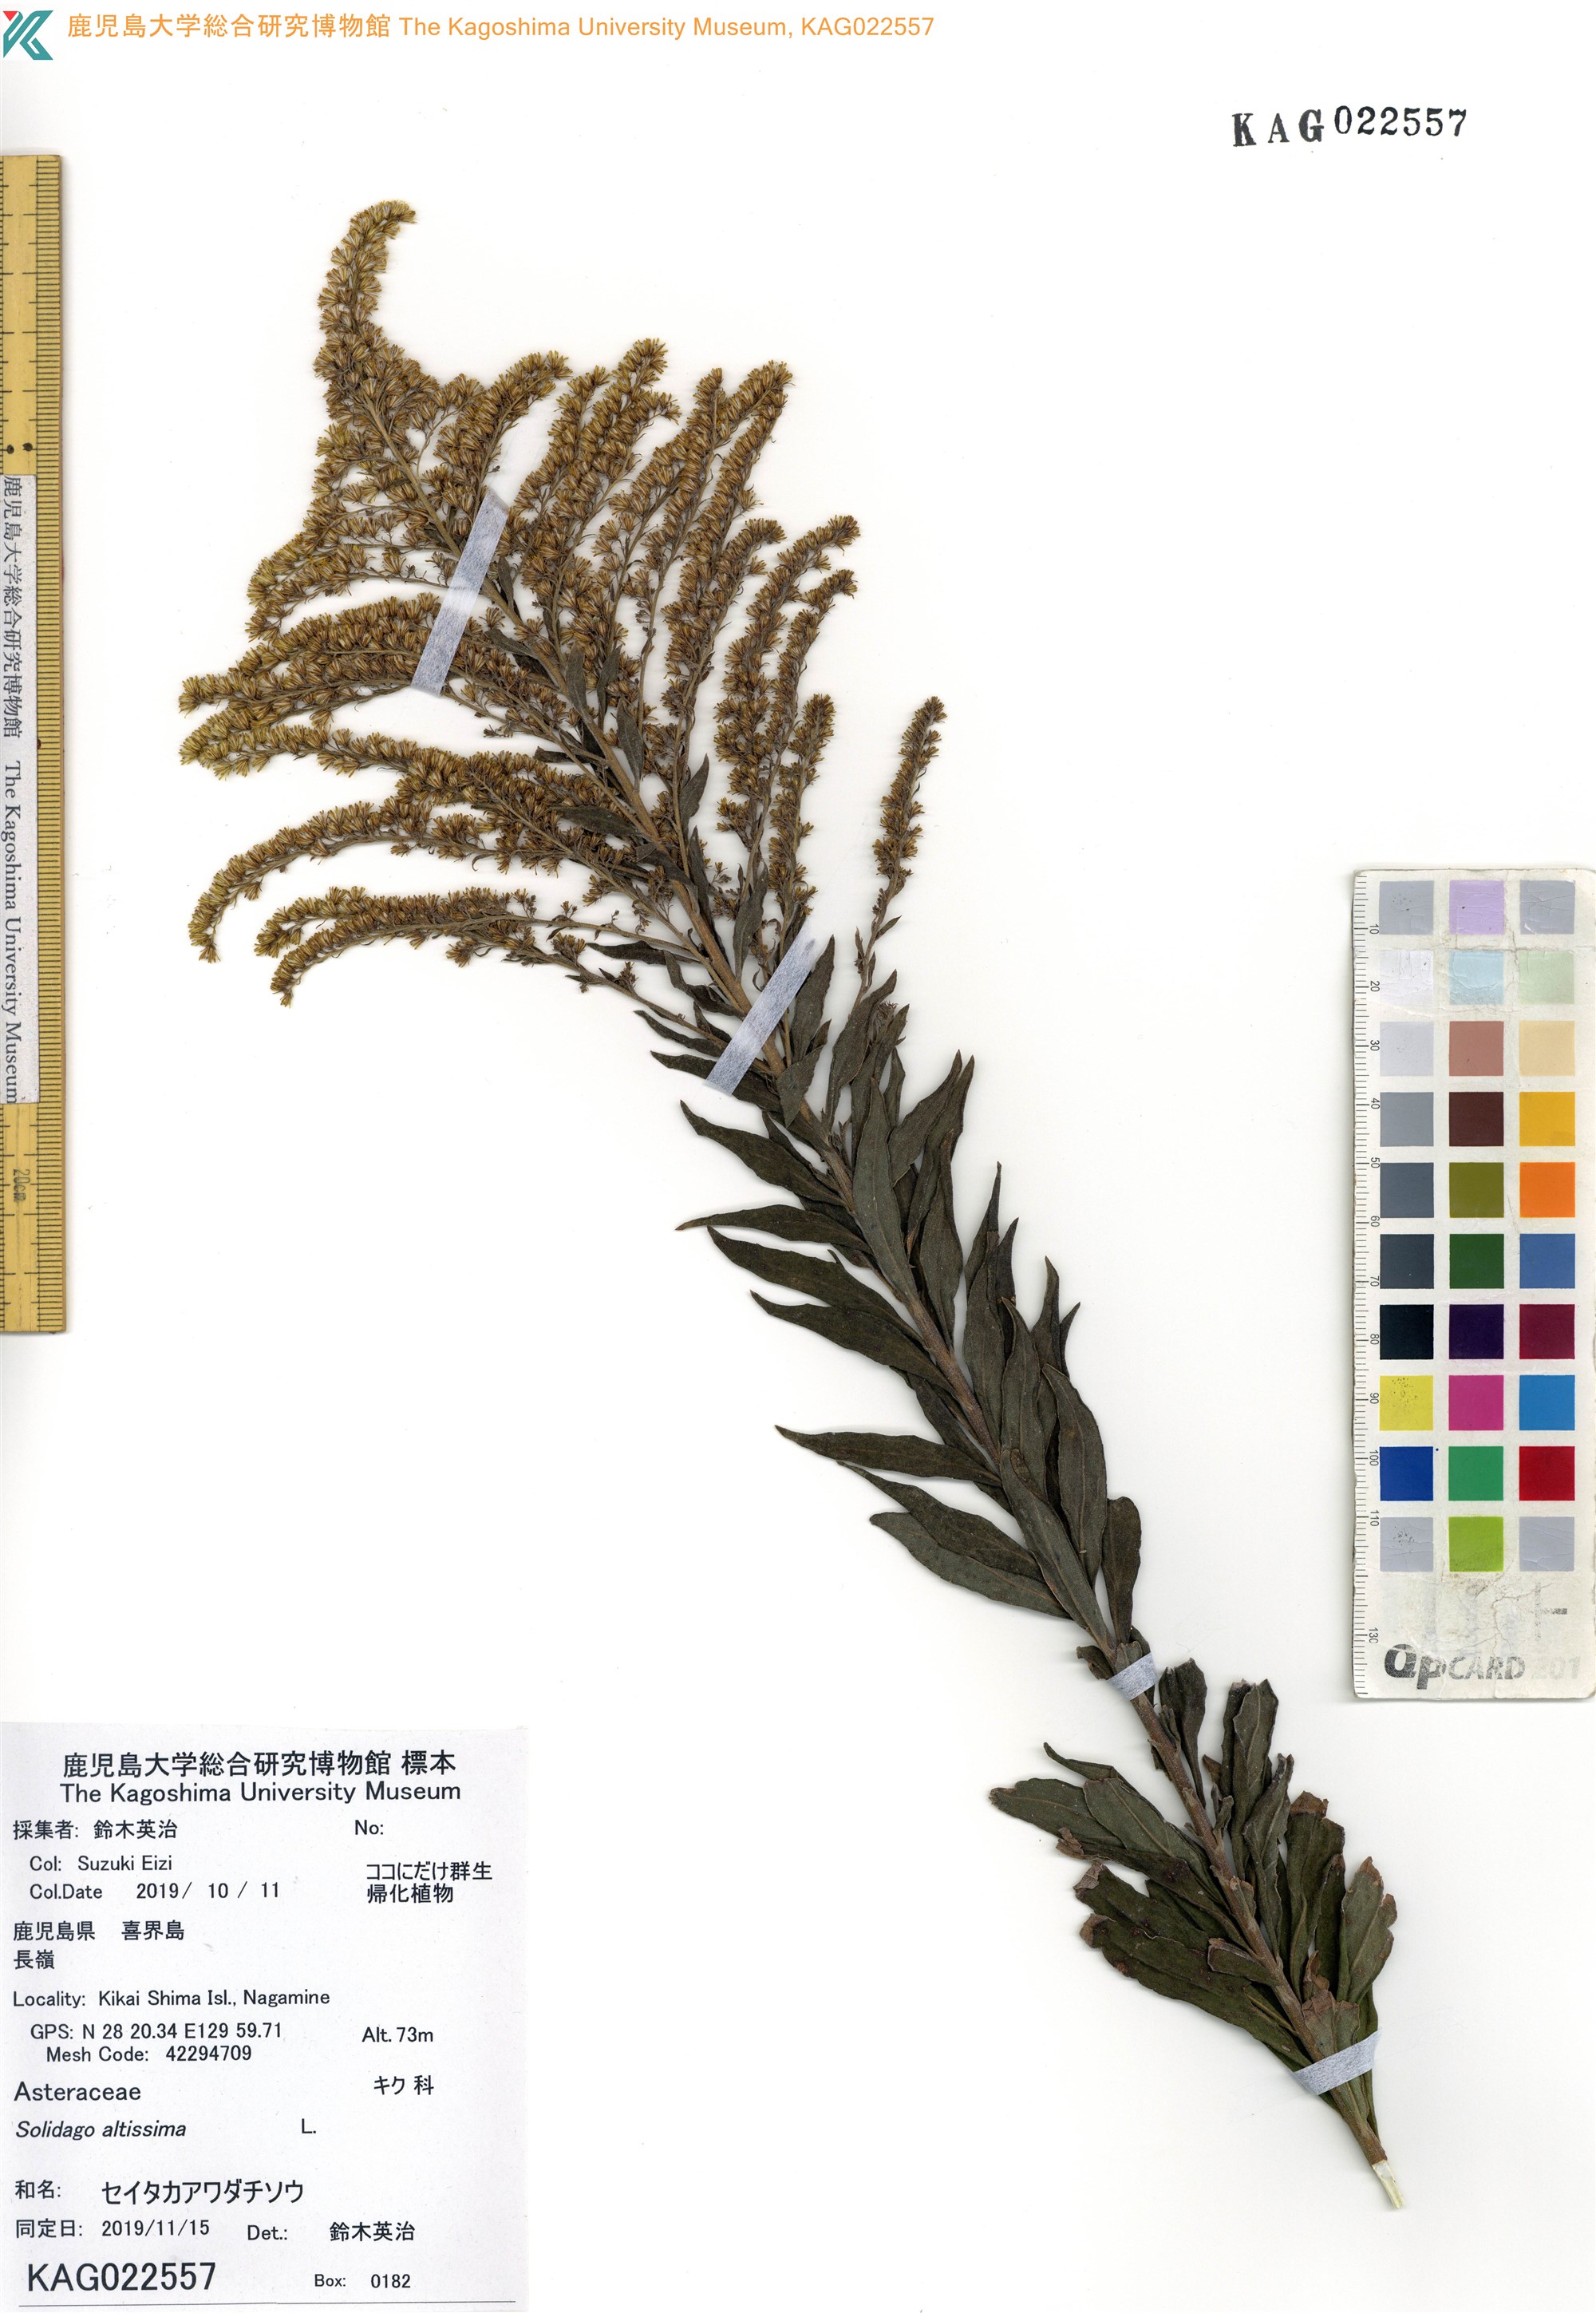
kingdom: Plantae
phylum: Tracheophyta
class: Magnoliopsida
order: Asterales
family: Asteraceae
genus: Solidago
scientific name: Solidago altissima
